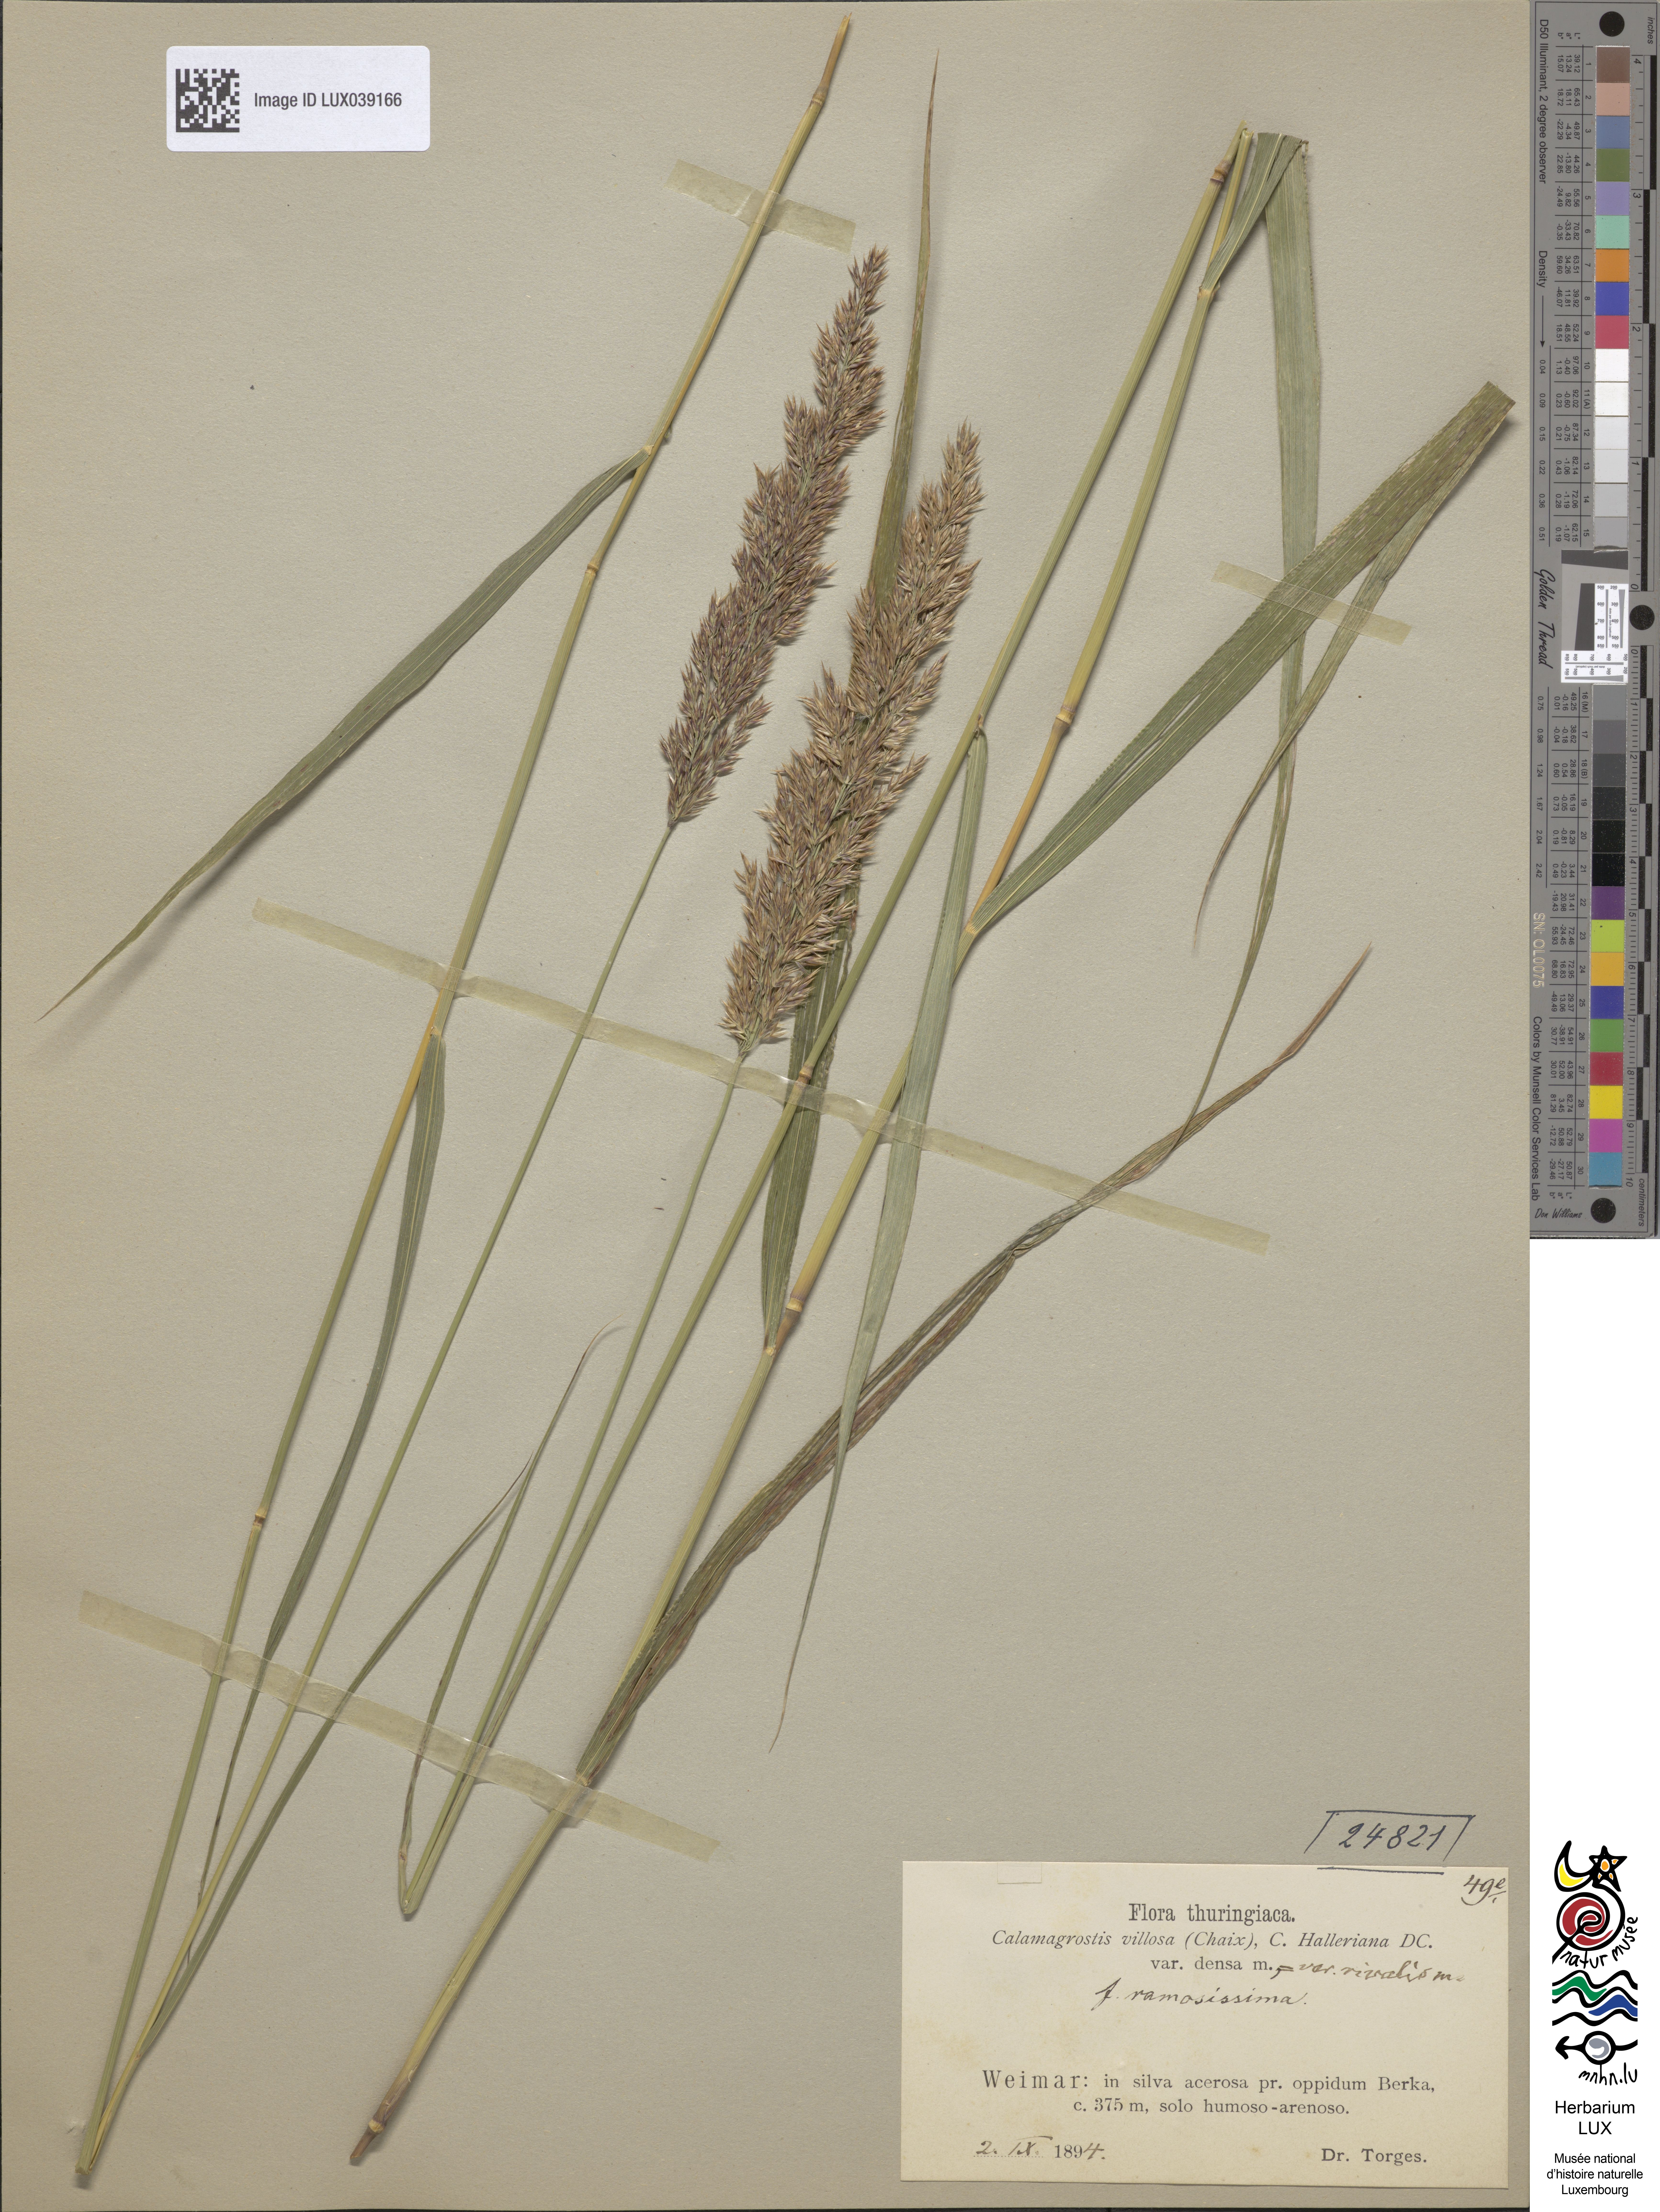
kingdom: Plantae
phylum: Tracheophyta
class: Liliopsida
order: Poales
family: Poaceae
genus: Calamagrostis
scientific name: Calamagrostis villosa
